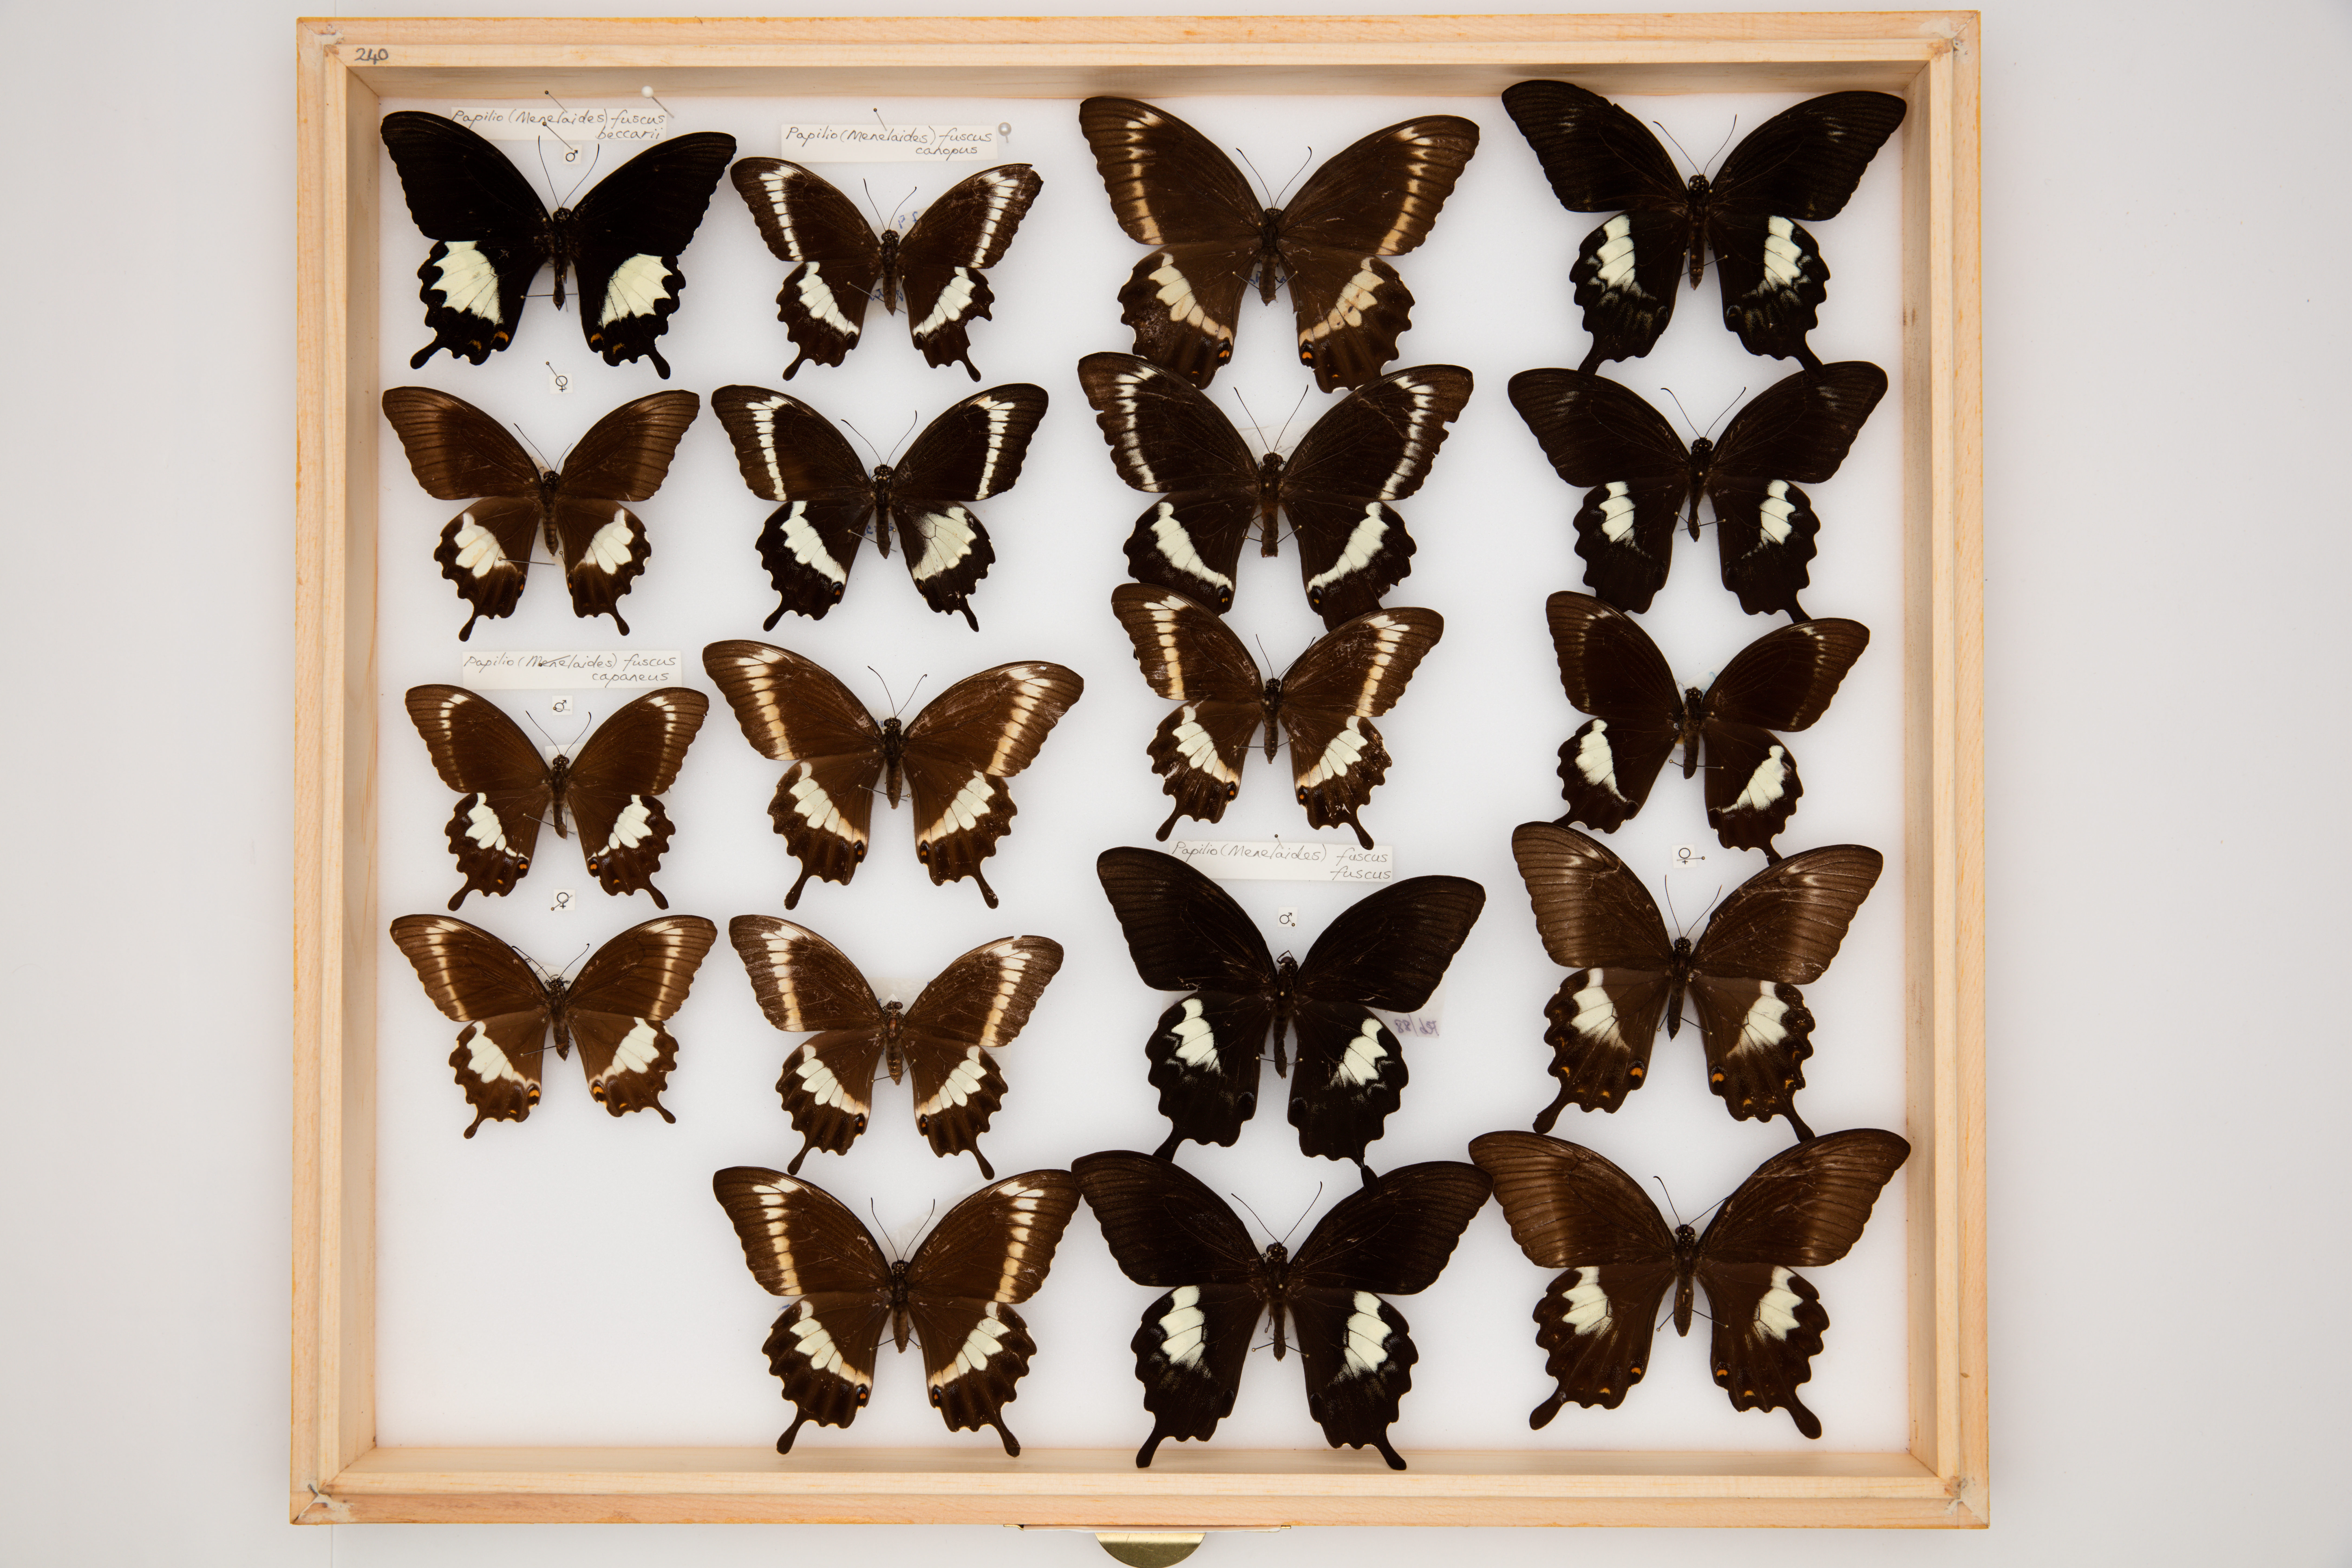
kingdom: Animalia
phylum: Arthropoda
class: Insecta
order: Lepidoptera
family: Papilionidae
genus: Papilio
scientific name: Papilio fuscus
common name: Fuscous swallowtail
